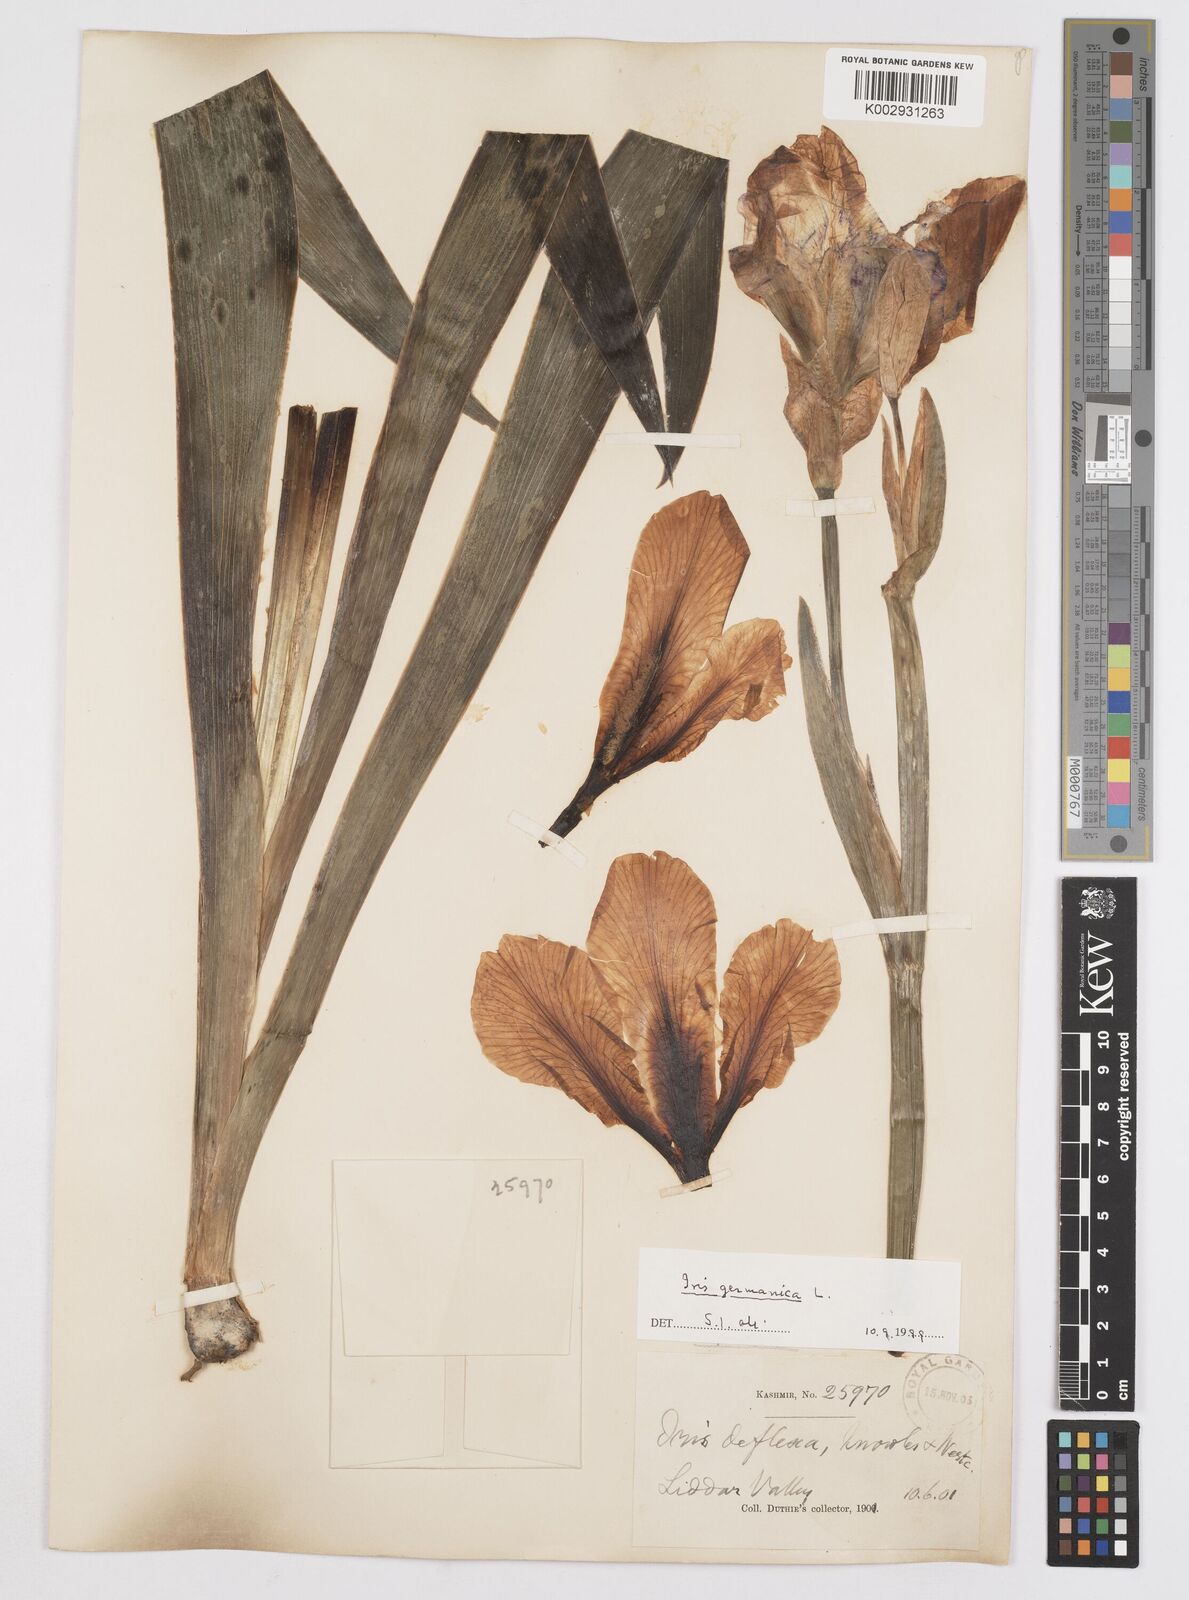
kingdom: Plantae
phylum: Tracheophyta
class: Liliopsida
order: Asparagales
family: Iridaceae
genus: Iris
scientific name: Iris germanica
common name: German iris
